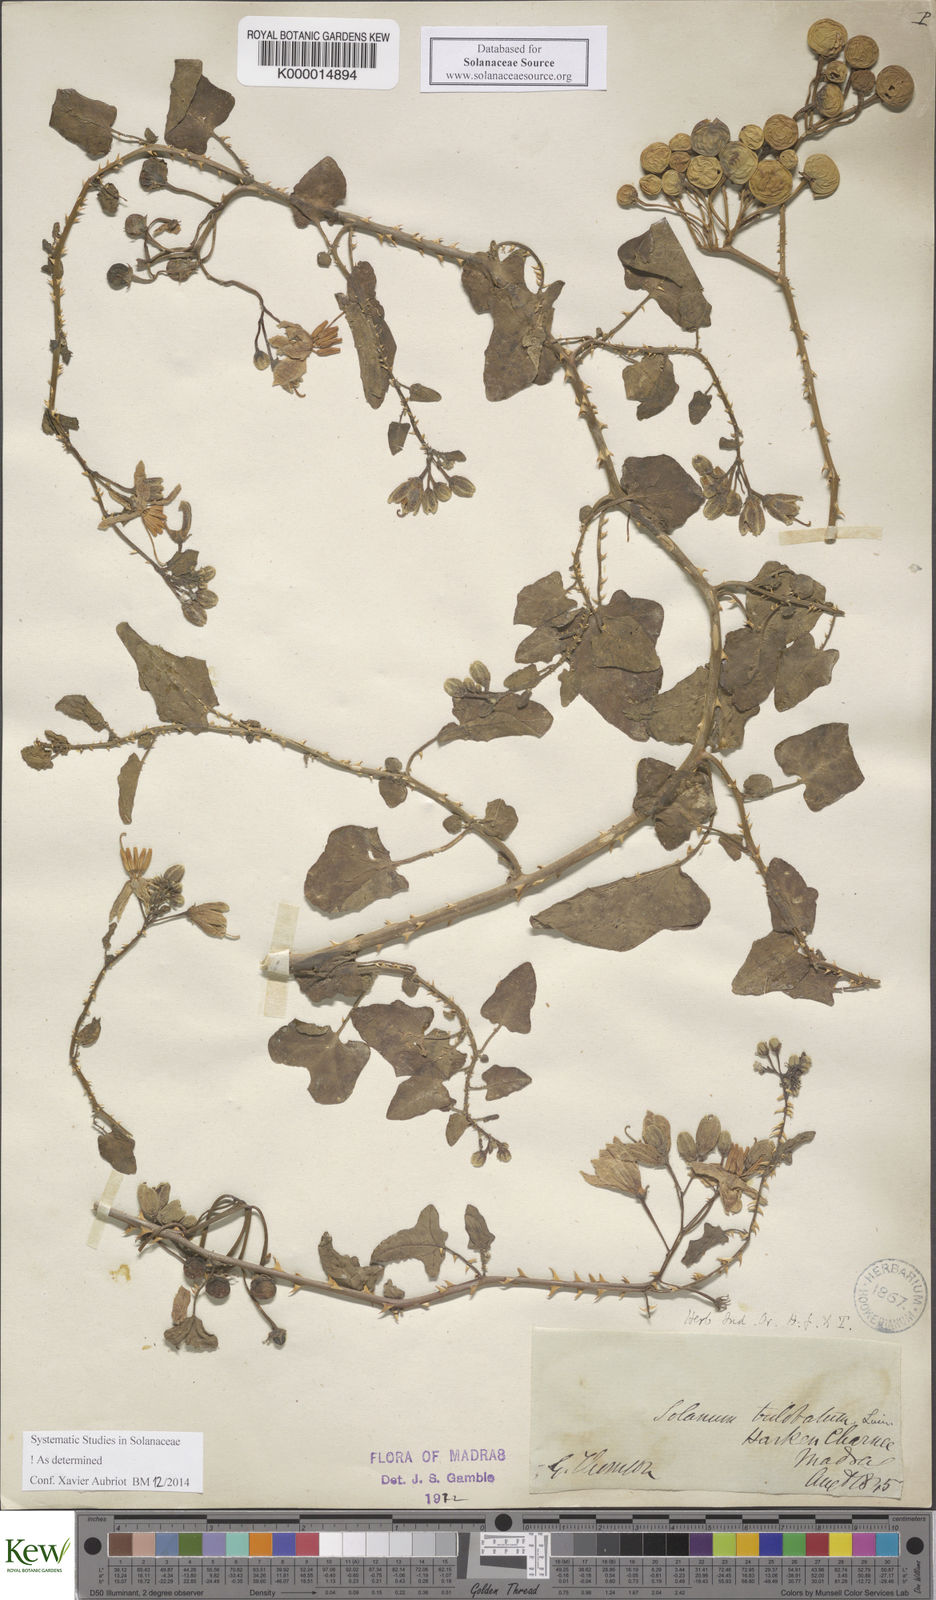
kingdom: Plantae
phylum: Tracheophyta
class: Magnoliopsida
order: Solanales
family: Solanaceae
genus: Solanum
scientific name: Solanum trilobatum
